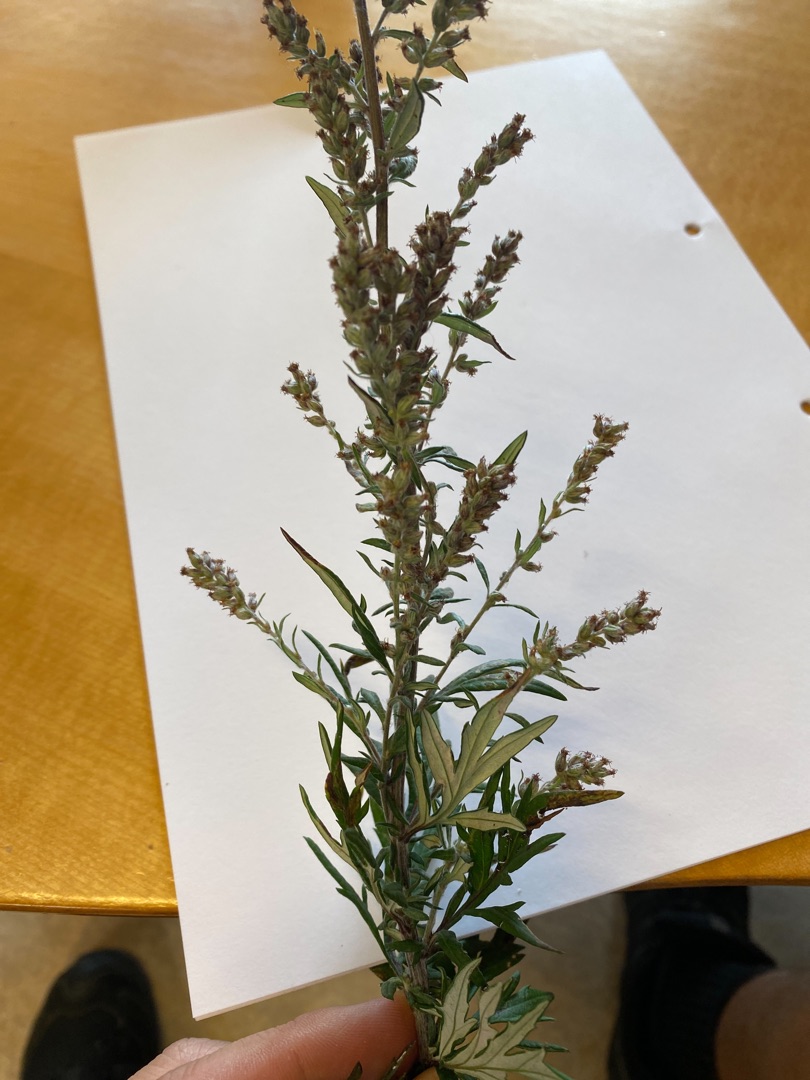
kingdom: Plantae
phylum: Tracheophyta
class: Magnoliopsida
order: Asterales
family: Asteraceae
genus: Artemisia
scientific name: Artemisia vulgaris
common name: Grå-bynke
